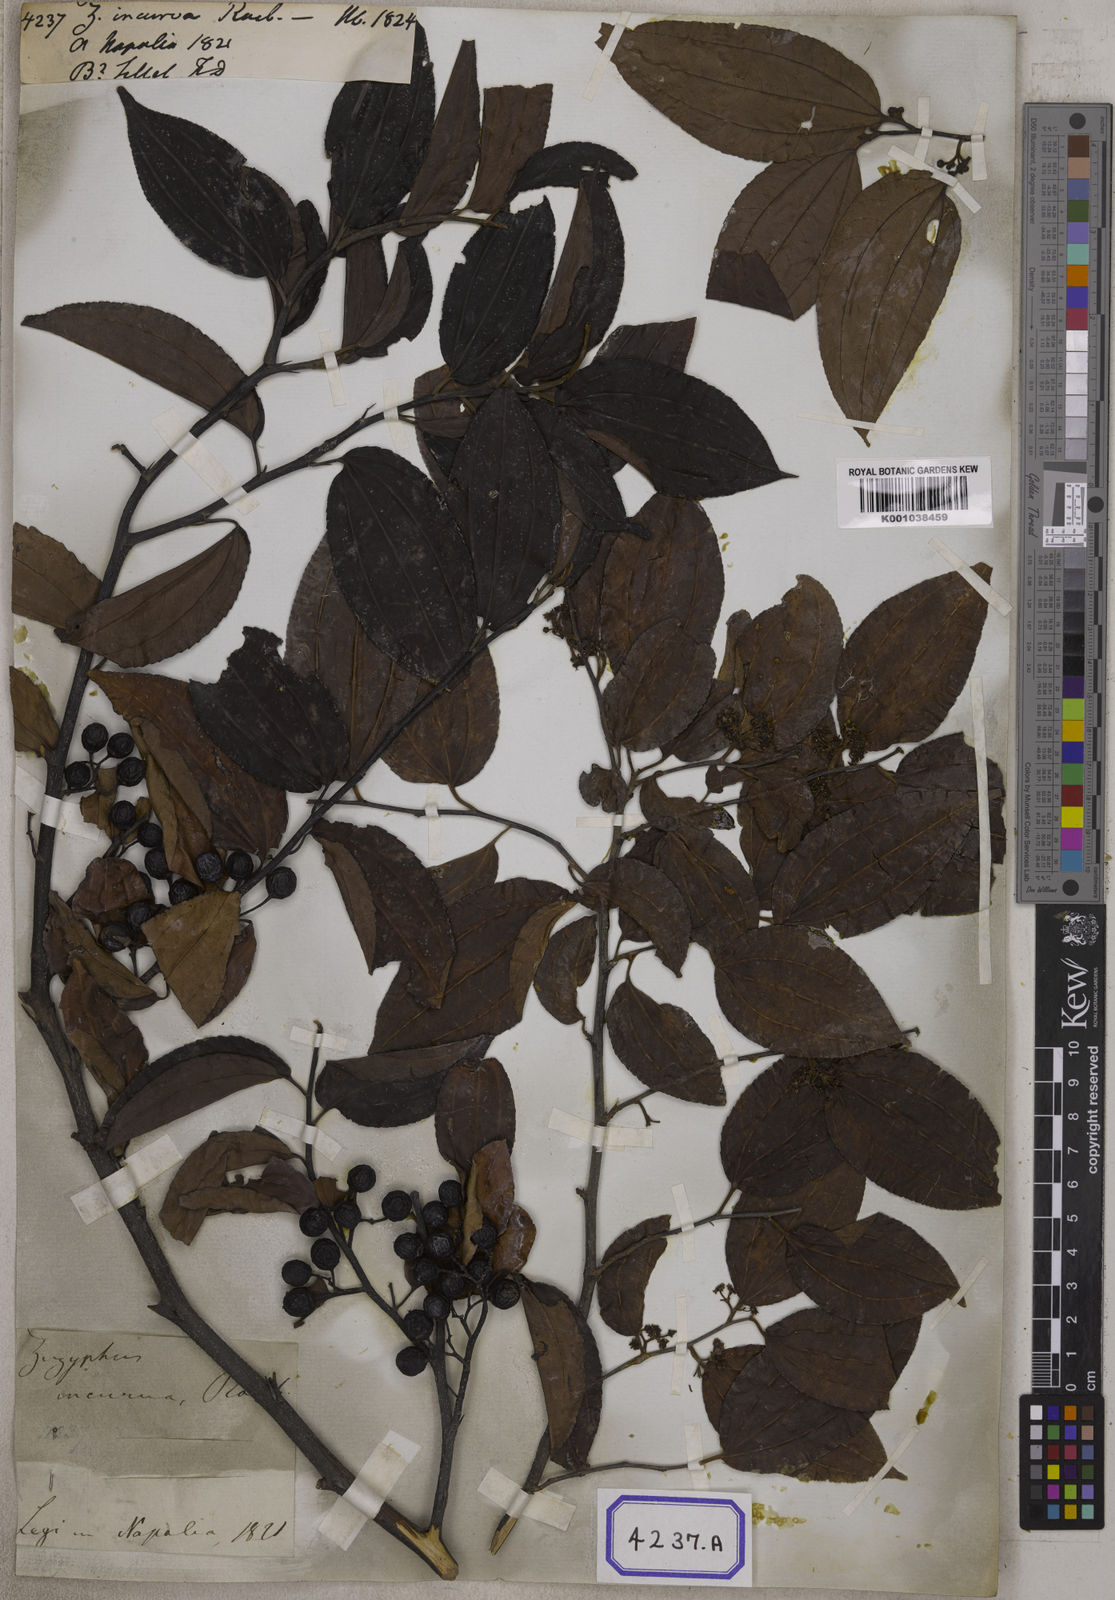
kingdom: Plantae
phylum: Tracheophyta
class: Magnoliopsida
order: Rosales
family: Rhamnaceae
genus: Ziziphus
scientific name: Ziziphus incurva
